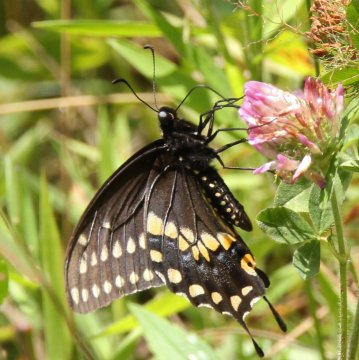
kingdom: Animalia
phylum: Arthropoda
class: Insecta
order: Lepidoptera
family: Papilionidae
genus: Papilio
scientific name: Papilio polyxenes
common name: Black Swallowtail
